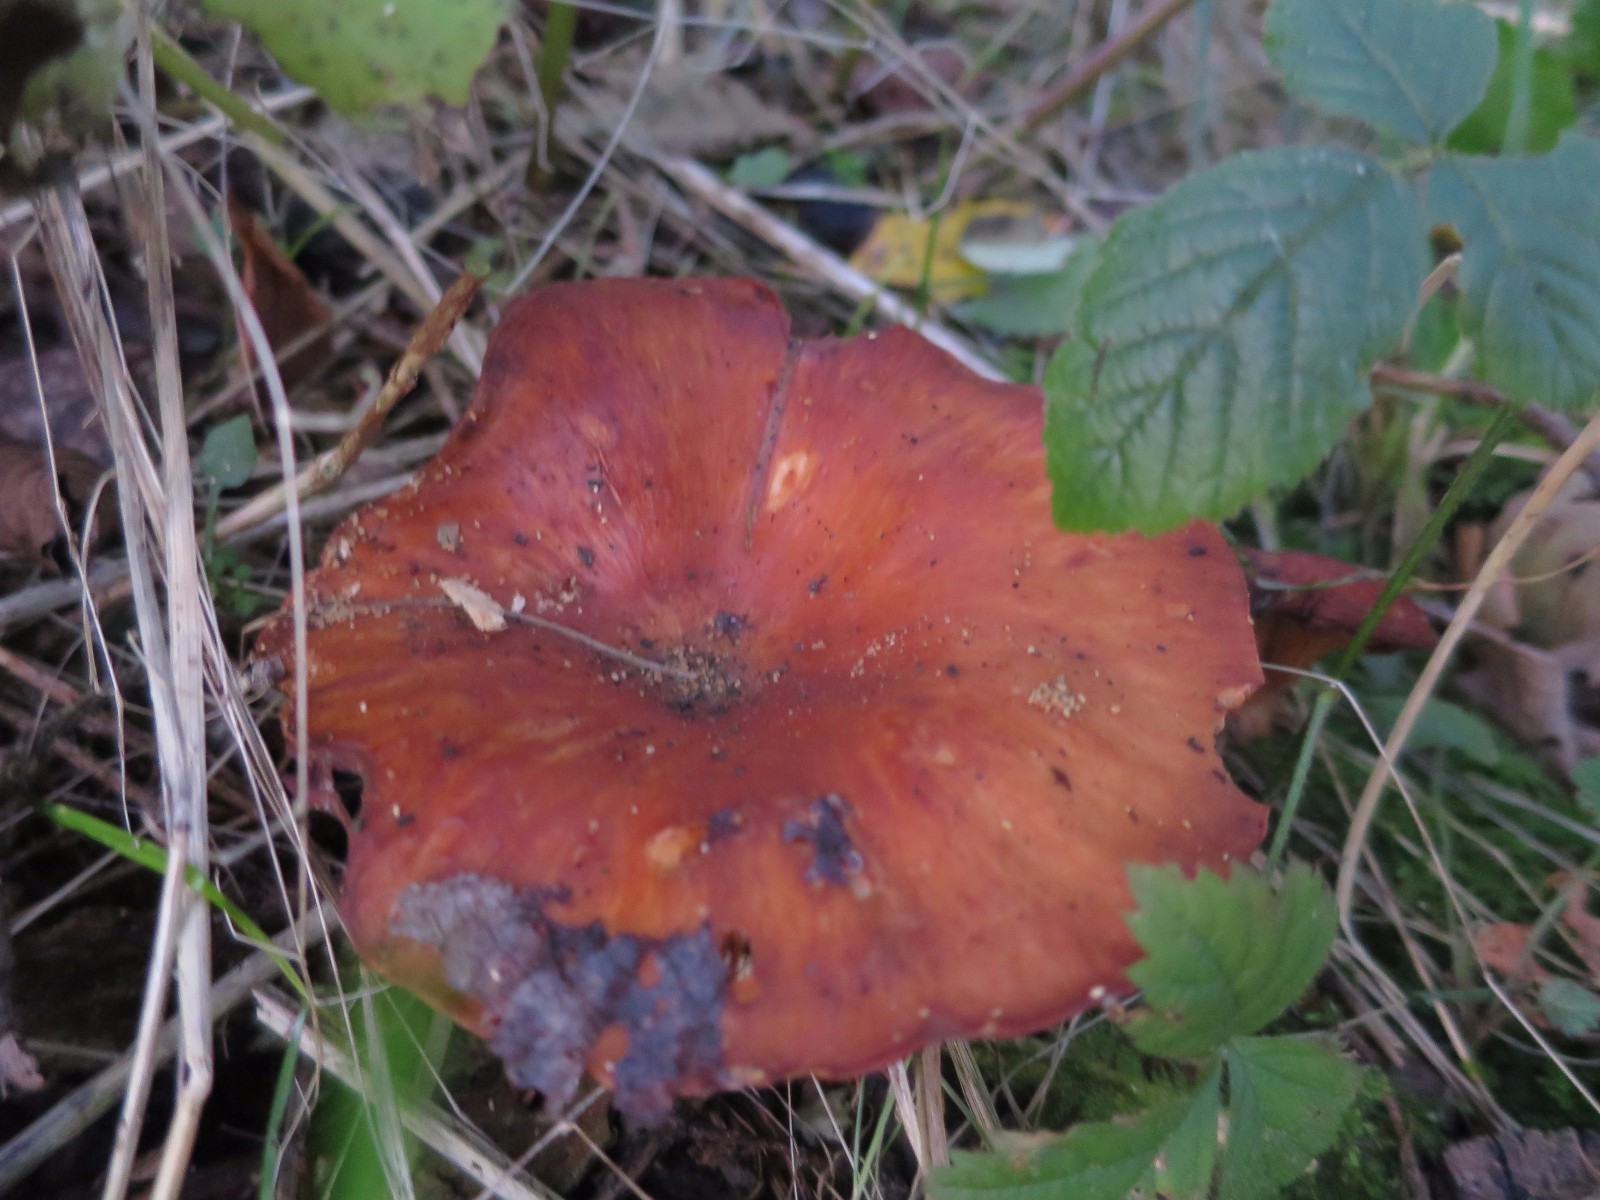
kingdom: Fungi
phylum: Basidiomycota
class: Agaricomycetes
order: Agaricales
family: Tricholomataceae
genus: Paralepista
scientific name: Paralepista flaccida
